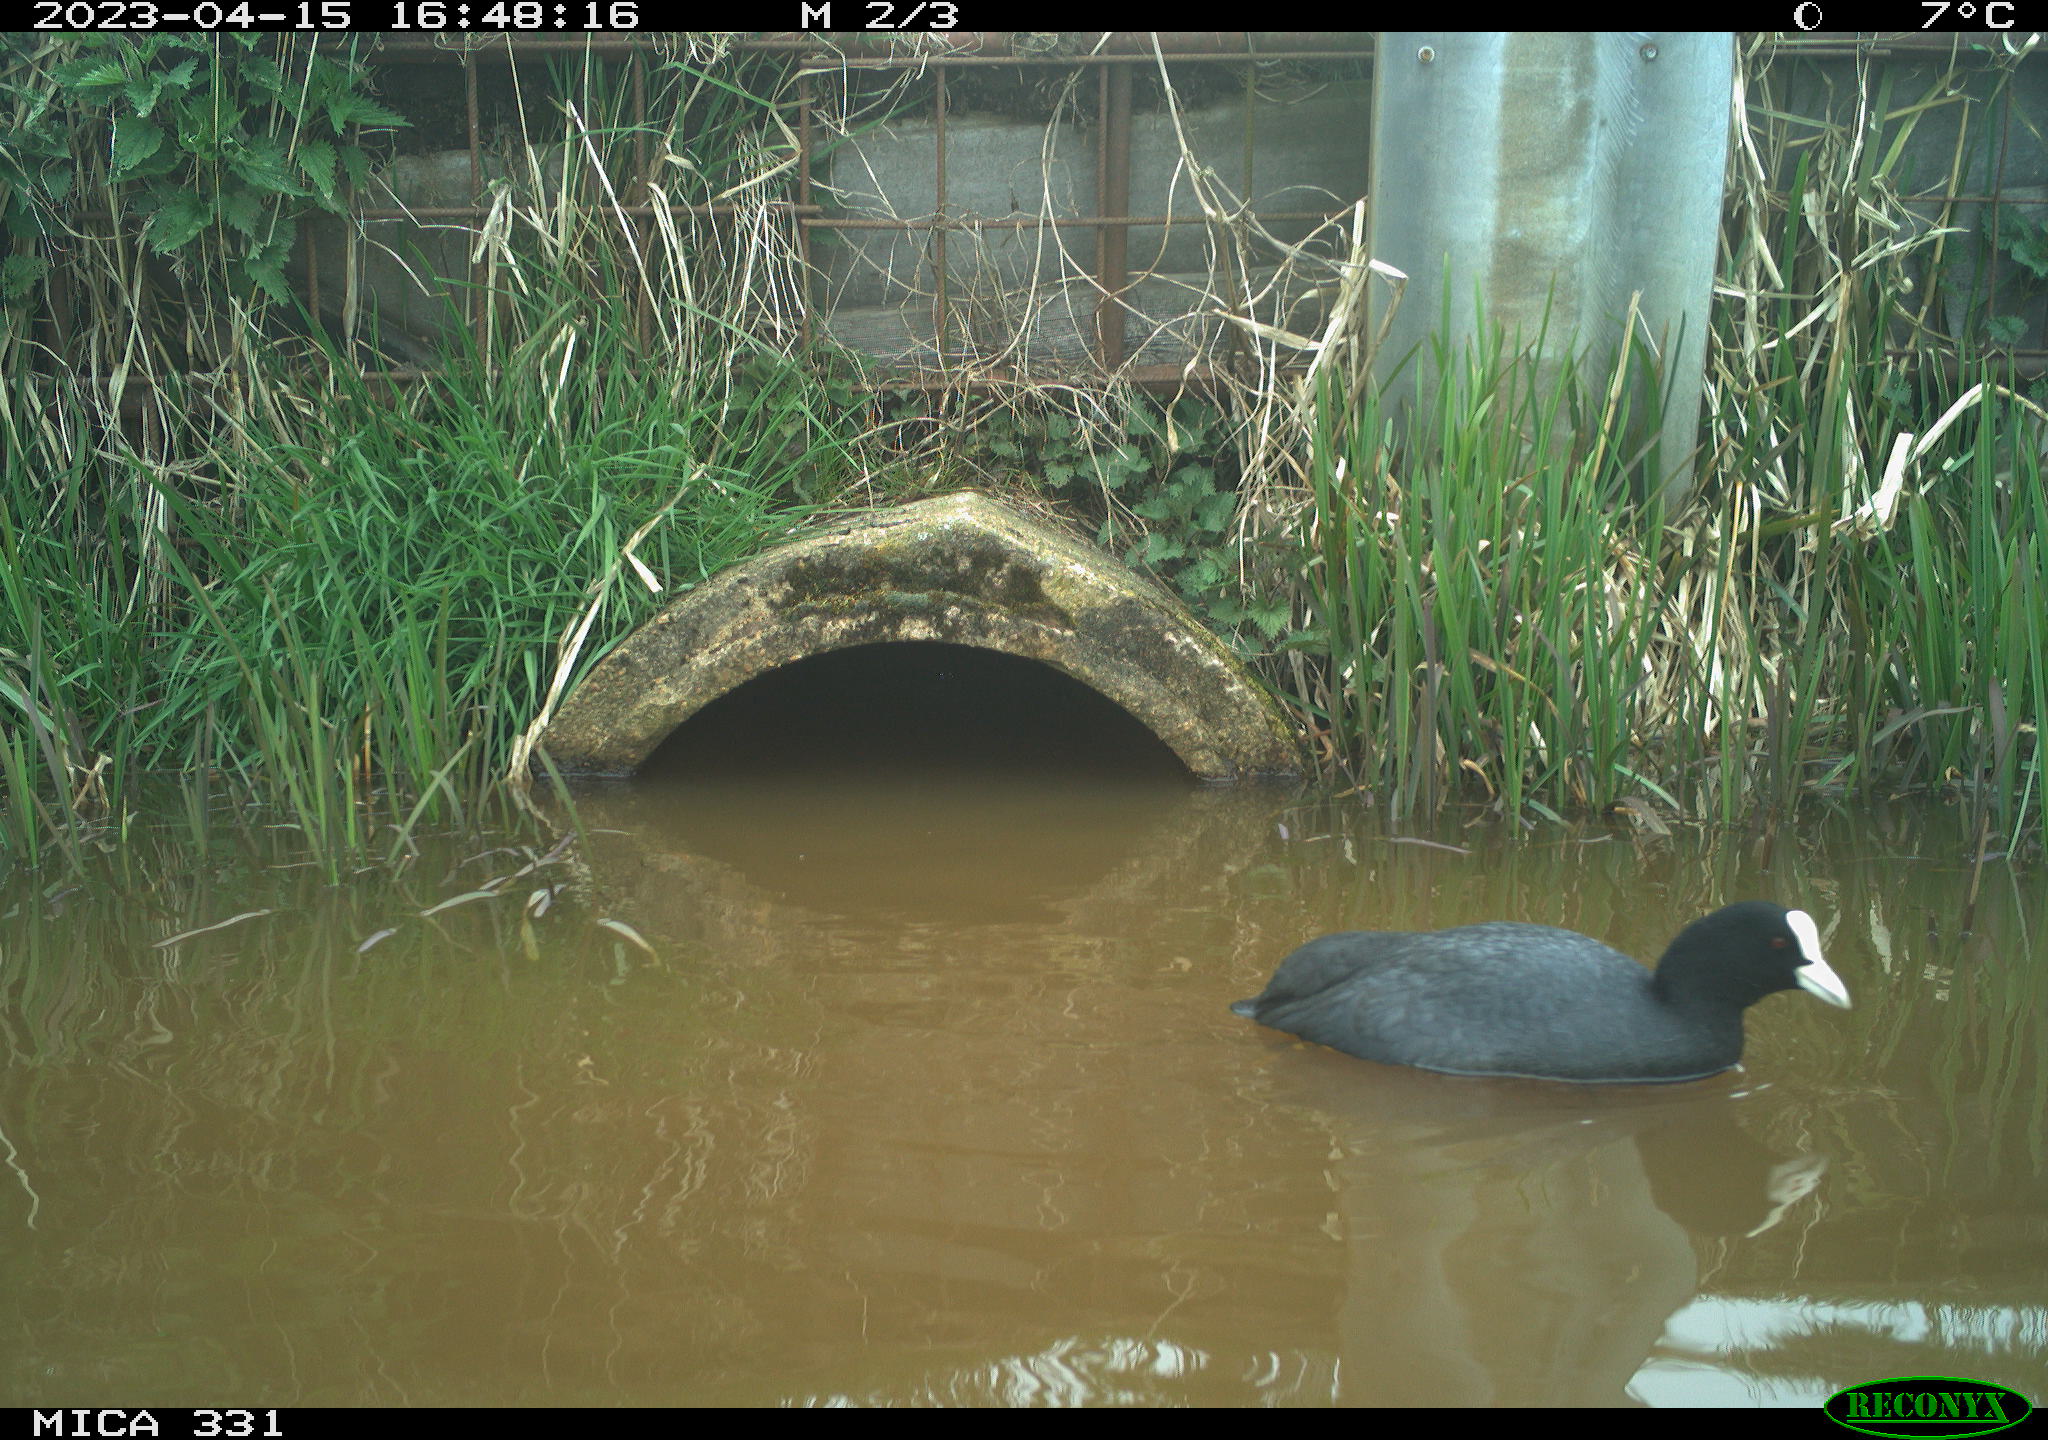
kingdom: Animalia
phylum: Chordata
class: Aves
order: Gruiformes
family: Rallidae
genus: Fulica
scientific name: Fulica atra
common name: Eurasian coot
